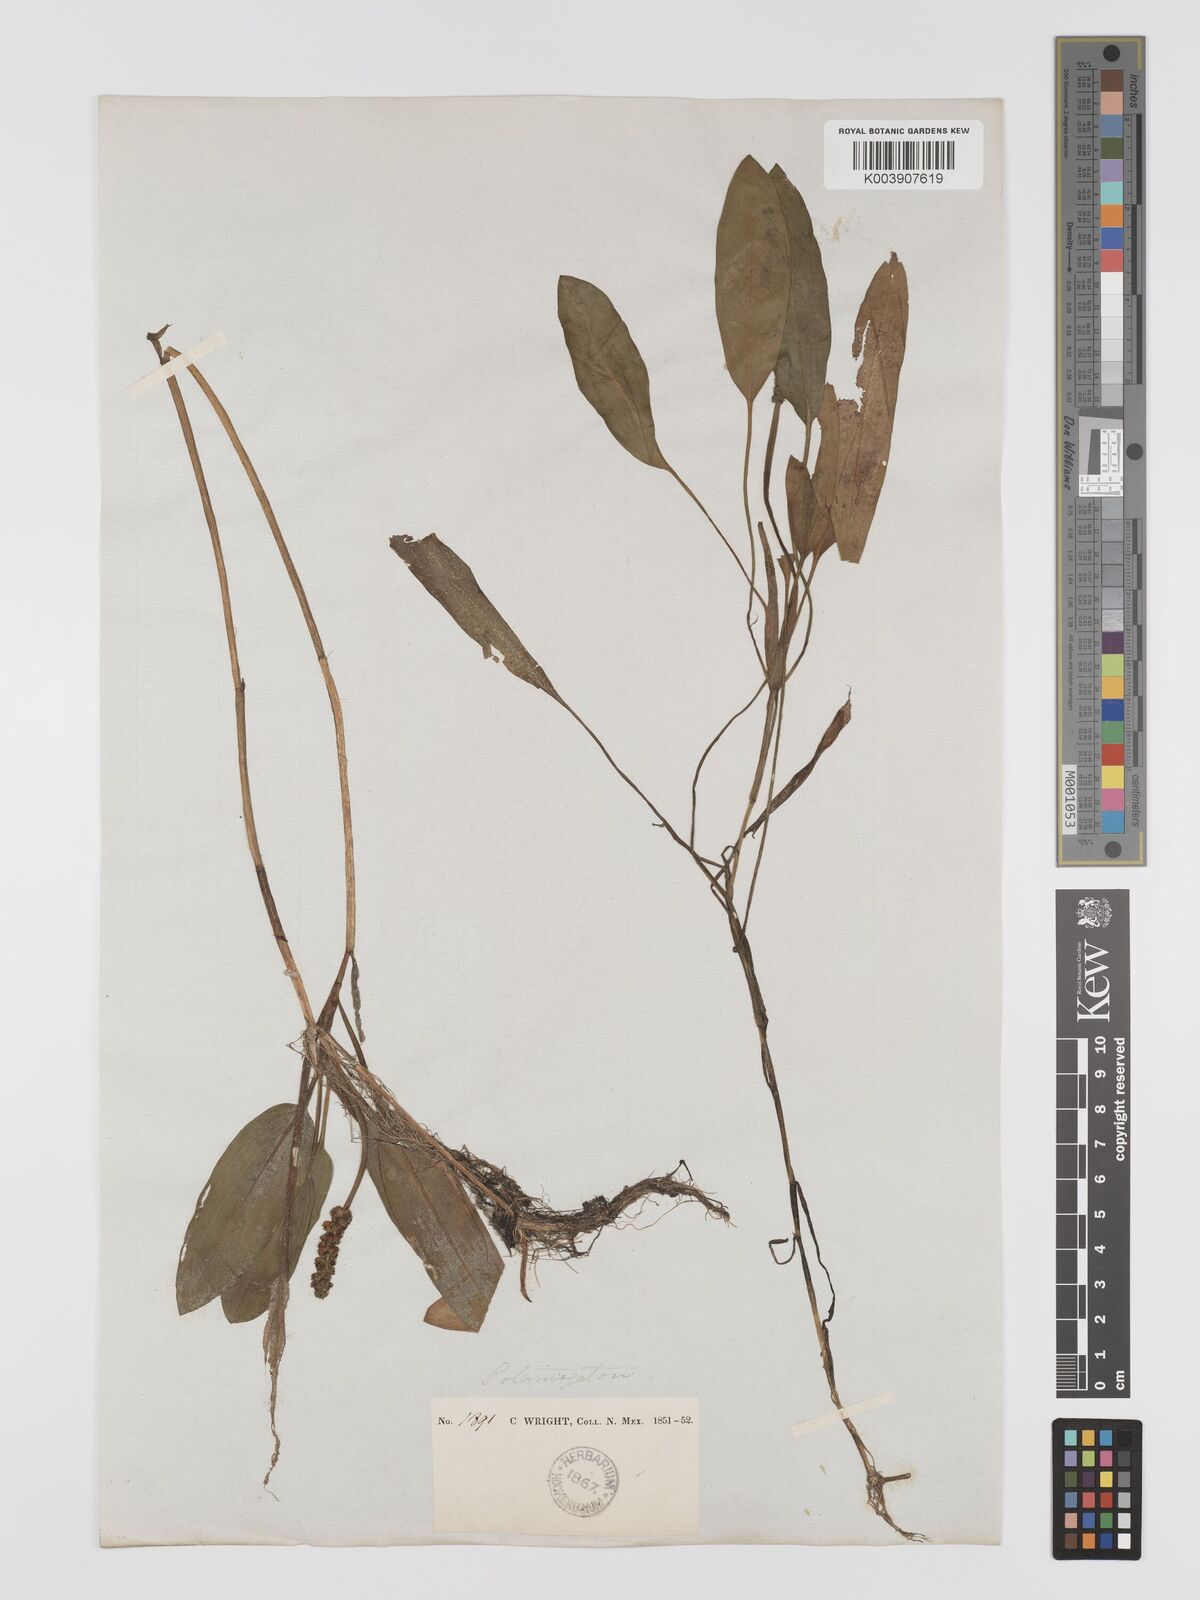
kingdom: Plantae
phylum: Tracheophyta
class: Liliopsida
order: Alismatales
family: Potamogetonaceae
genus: Potamogeton
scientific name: Potamogeton nodosus
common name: Loddon pondweed
